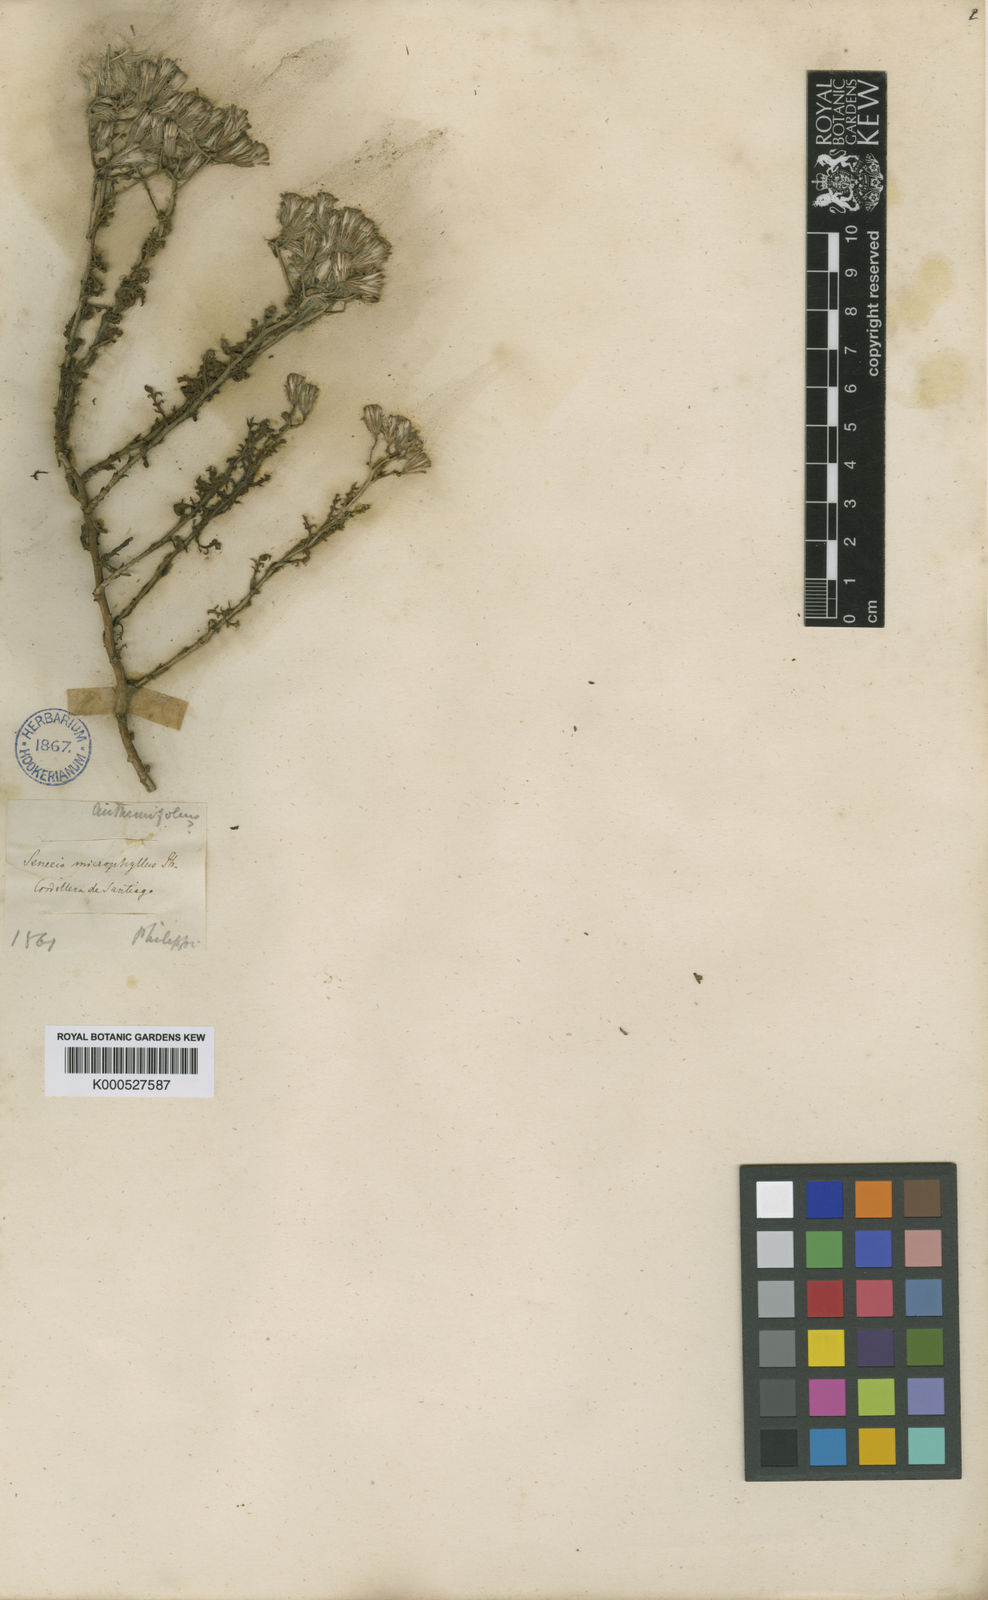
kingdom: Plantae
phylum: Tracheophyta
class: Magnoliopsida
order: Asterales
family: Asteraceae
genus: Senecio
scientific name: Senecio uspallatensis
